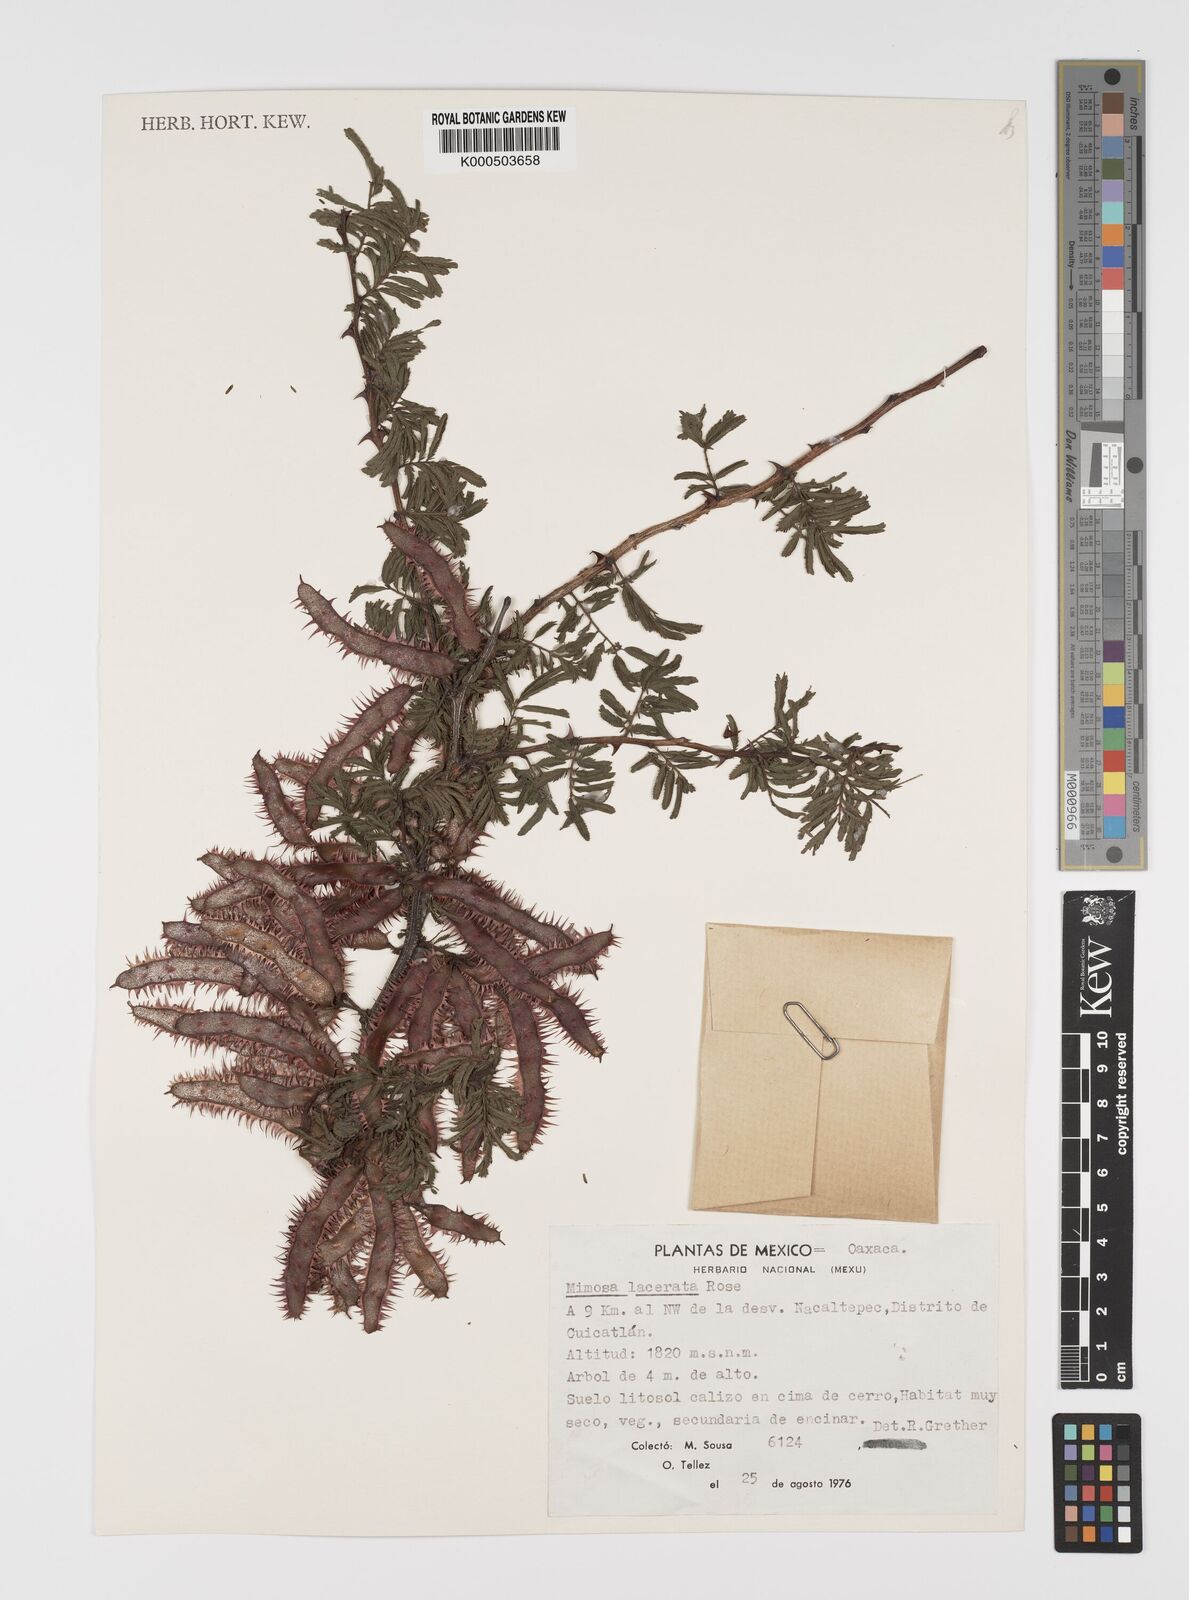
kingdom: Plantae
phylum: Tracheophyta
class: Magnoliopsida
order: Fabales
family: Fabaceae
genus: Mimosa
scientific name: Mimosa lacerata
